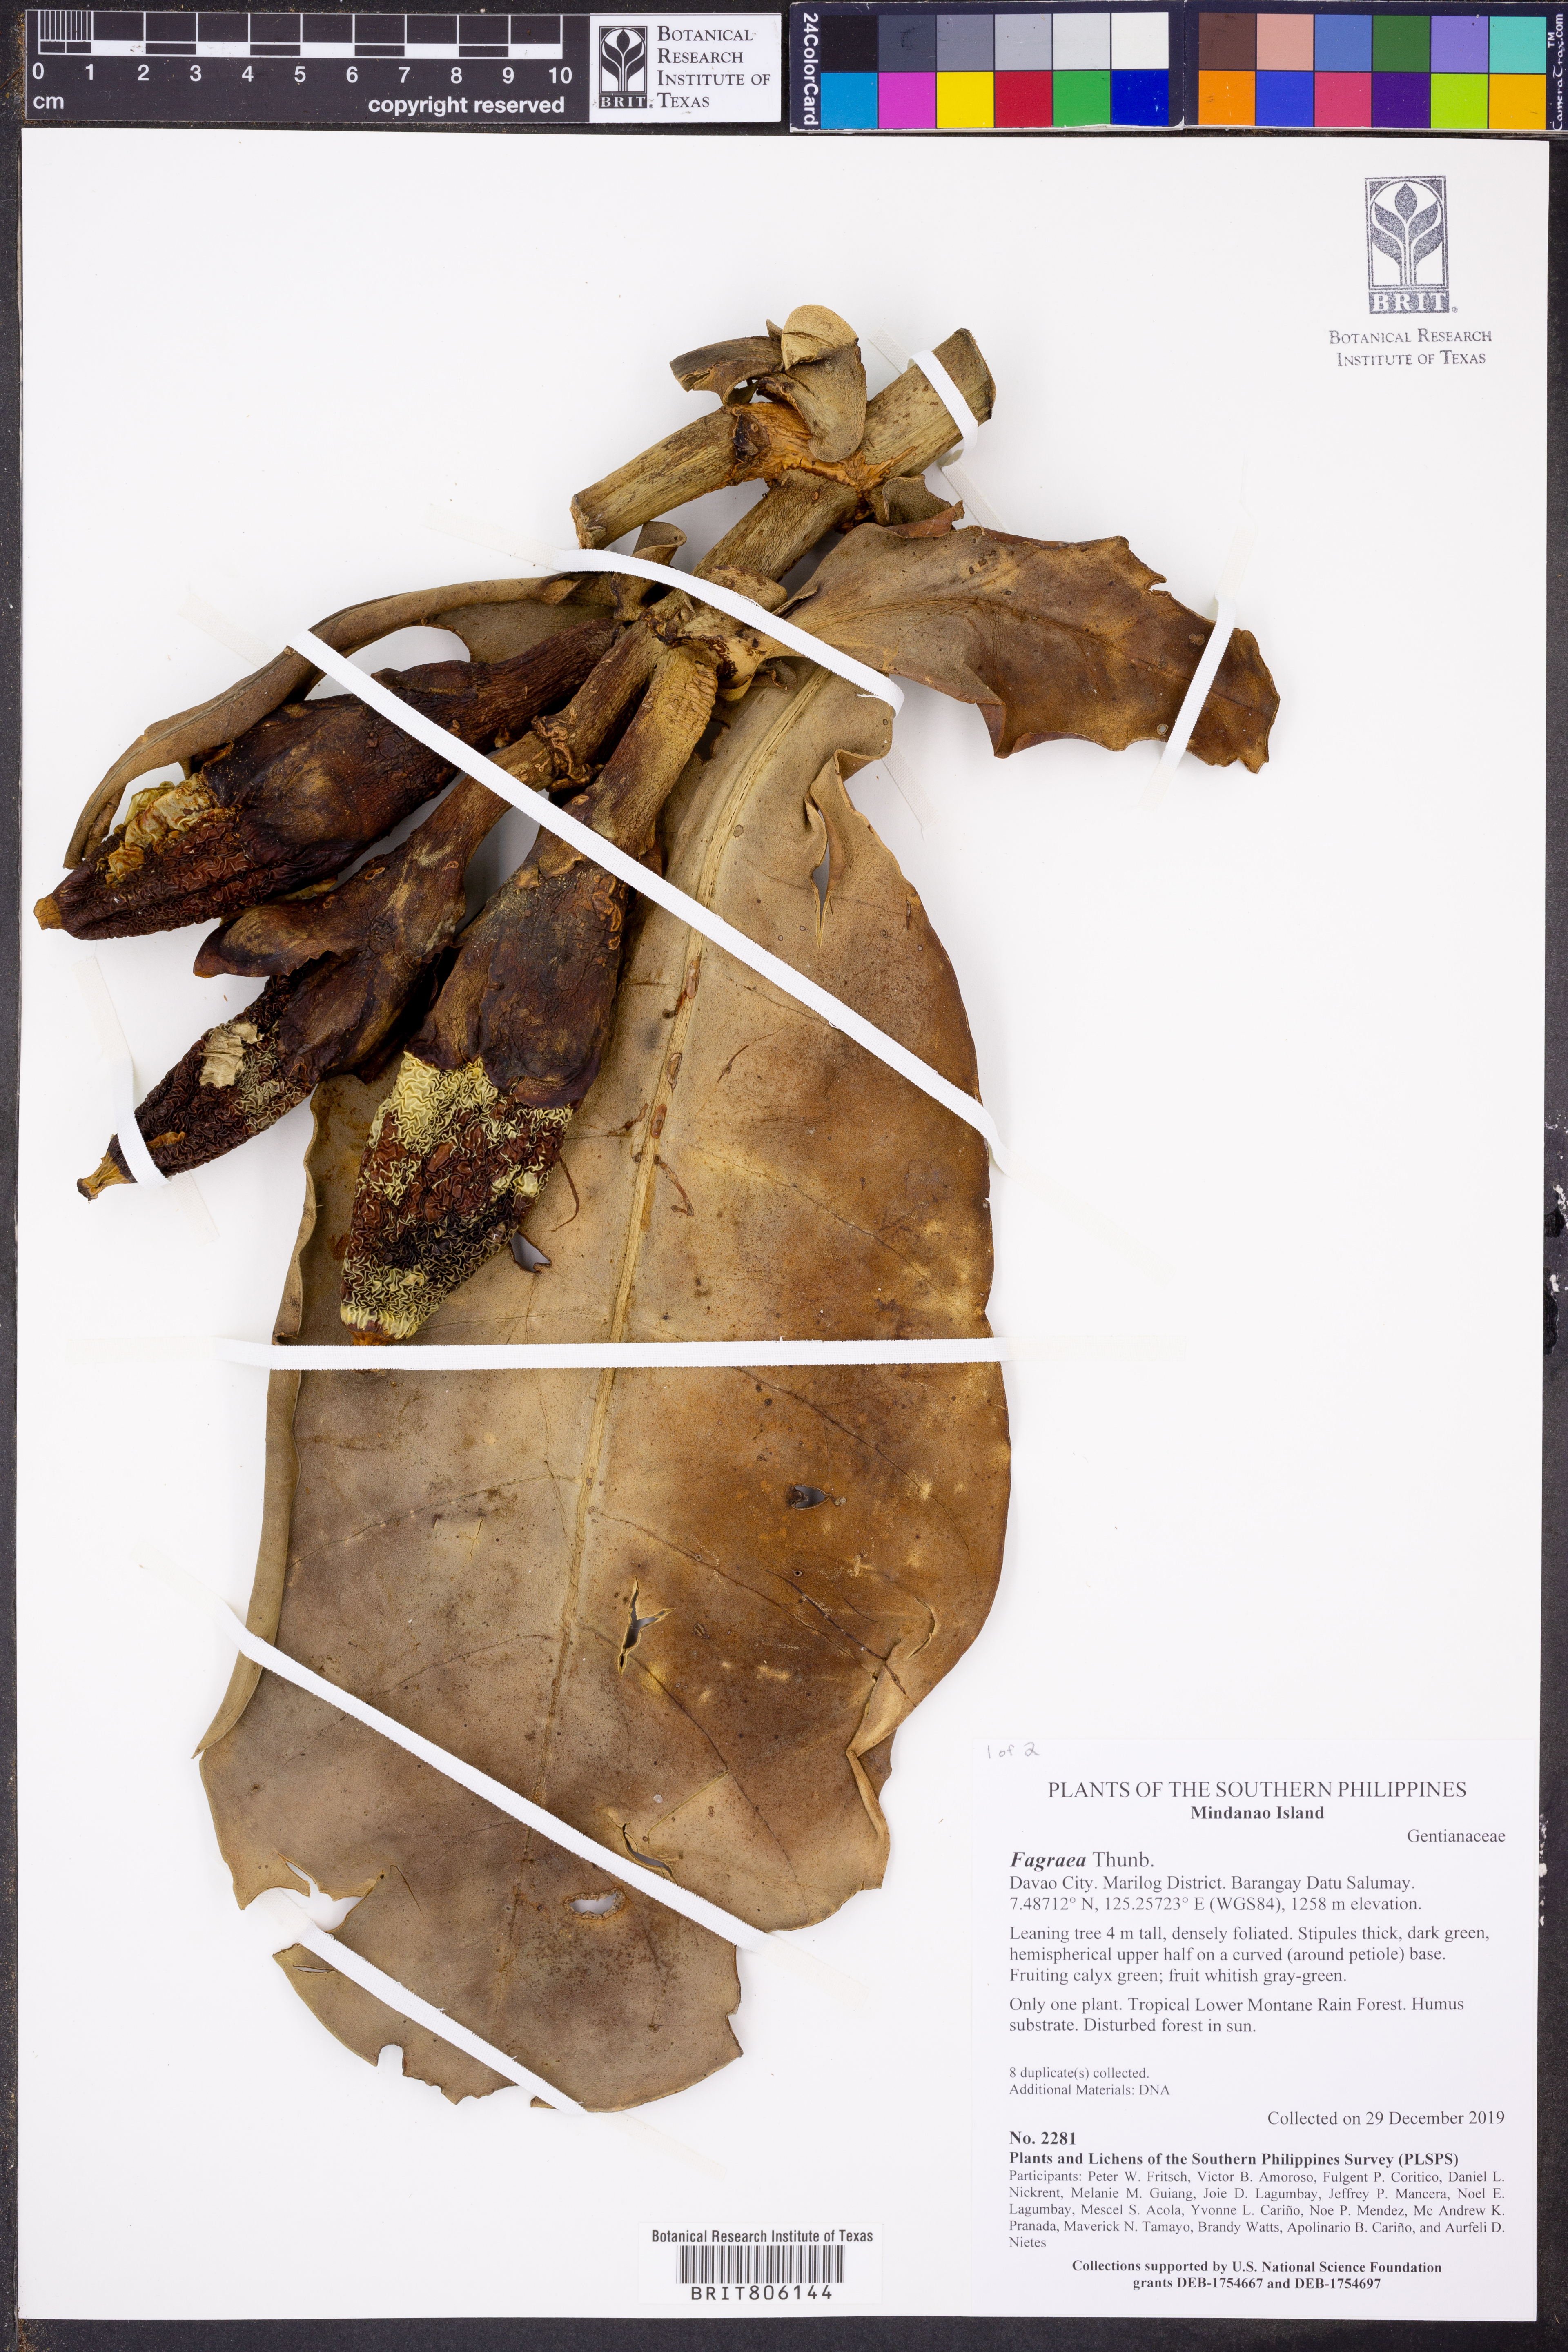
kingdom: Plantae
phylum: Tracheophyta
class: Magnoliopsida
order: Gentianales
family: Gentianaceae
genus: Fagraea
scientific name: Fagraea
